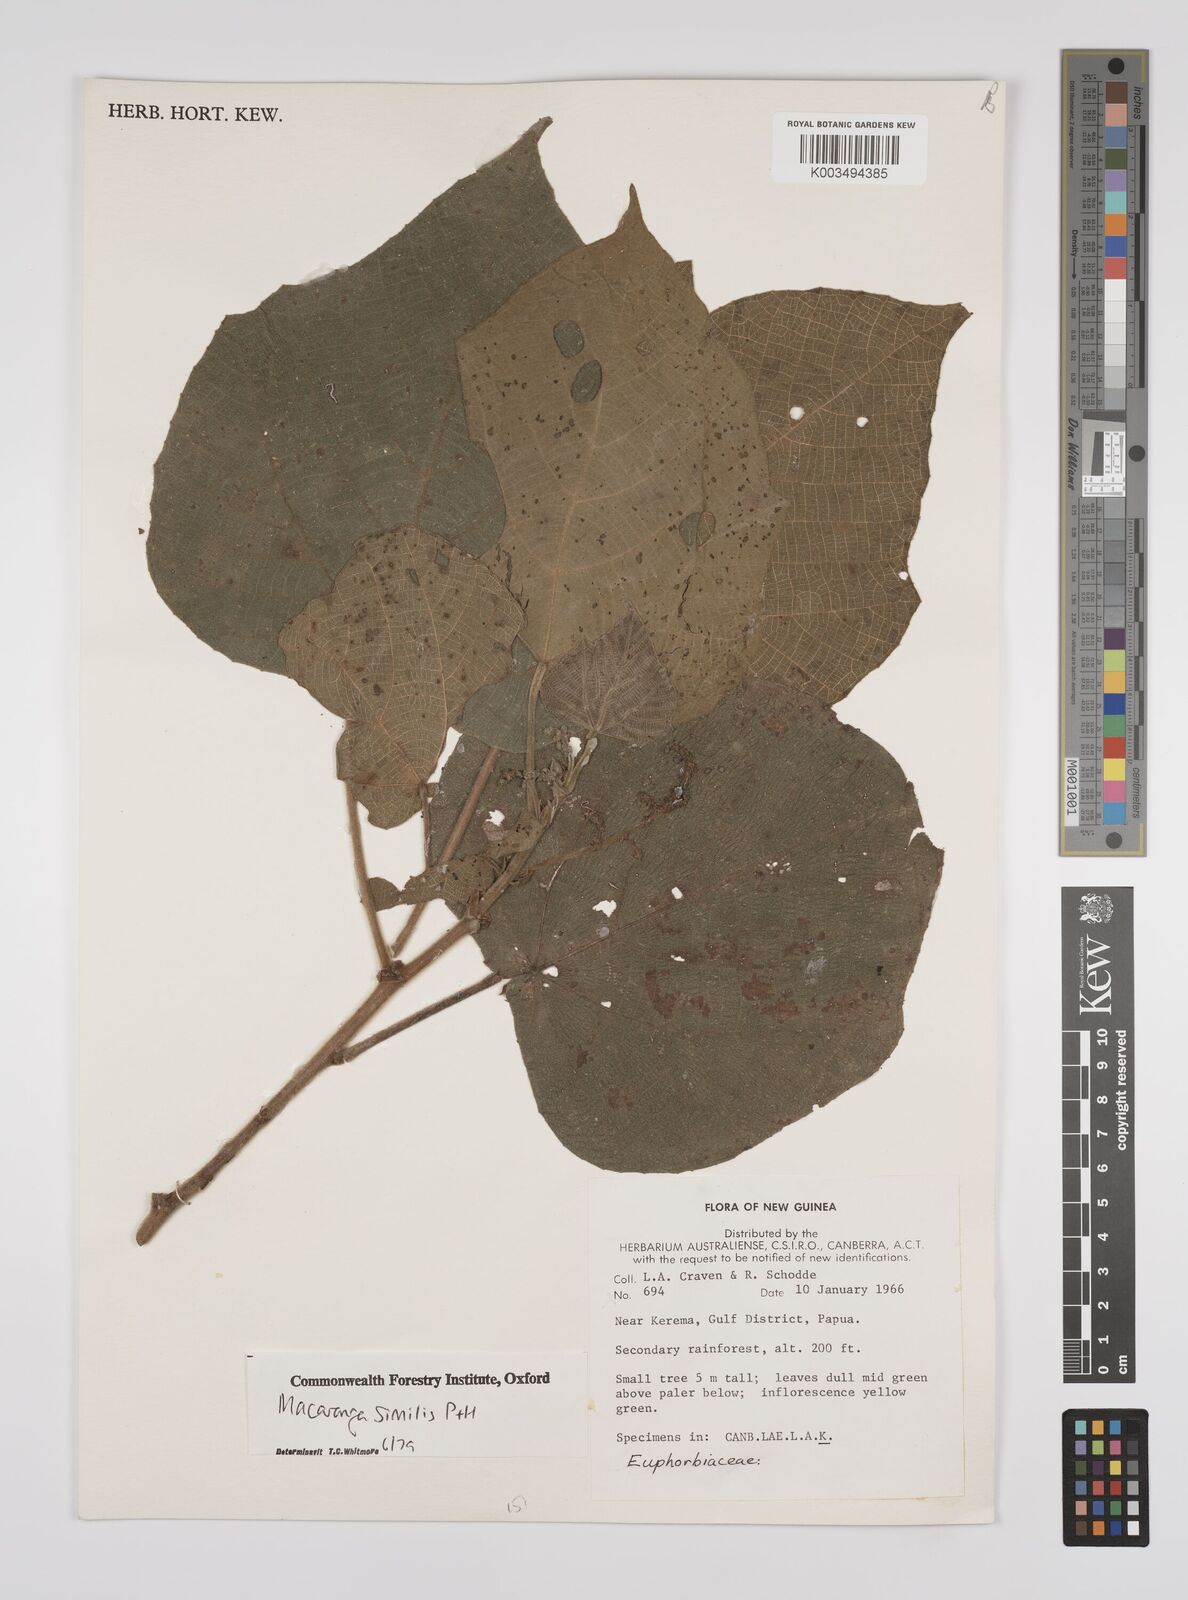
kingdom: Plantae
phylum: Tracheophyta
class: Magnoliopsida
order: Malpighiales
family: Euphorbiaceae
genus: Macaranga
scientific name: Macaranga similis
